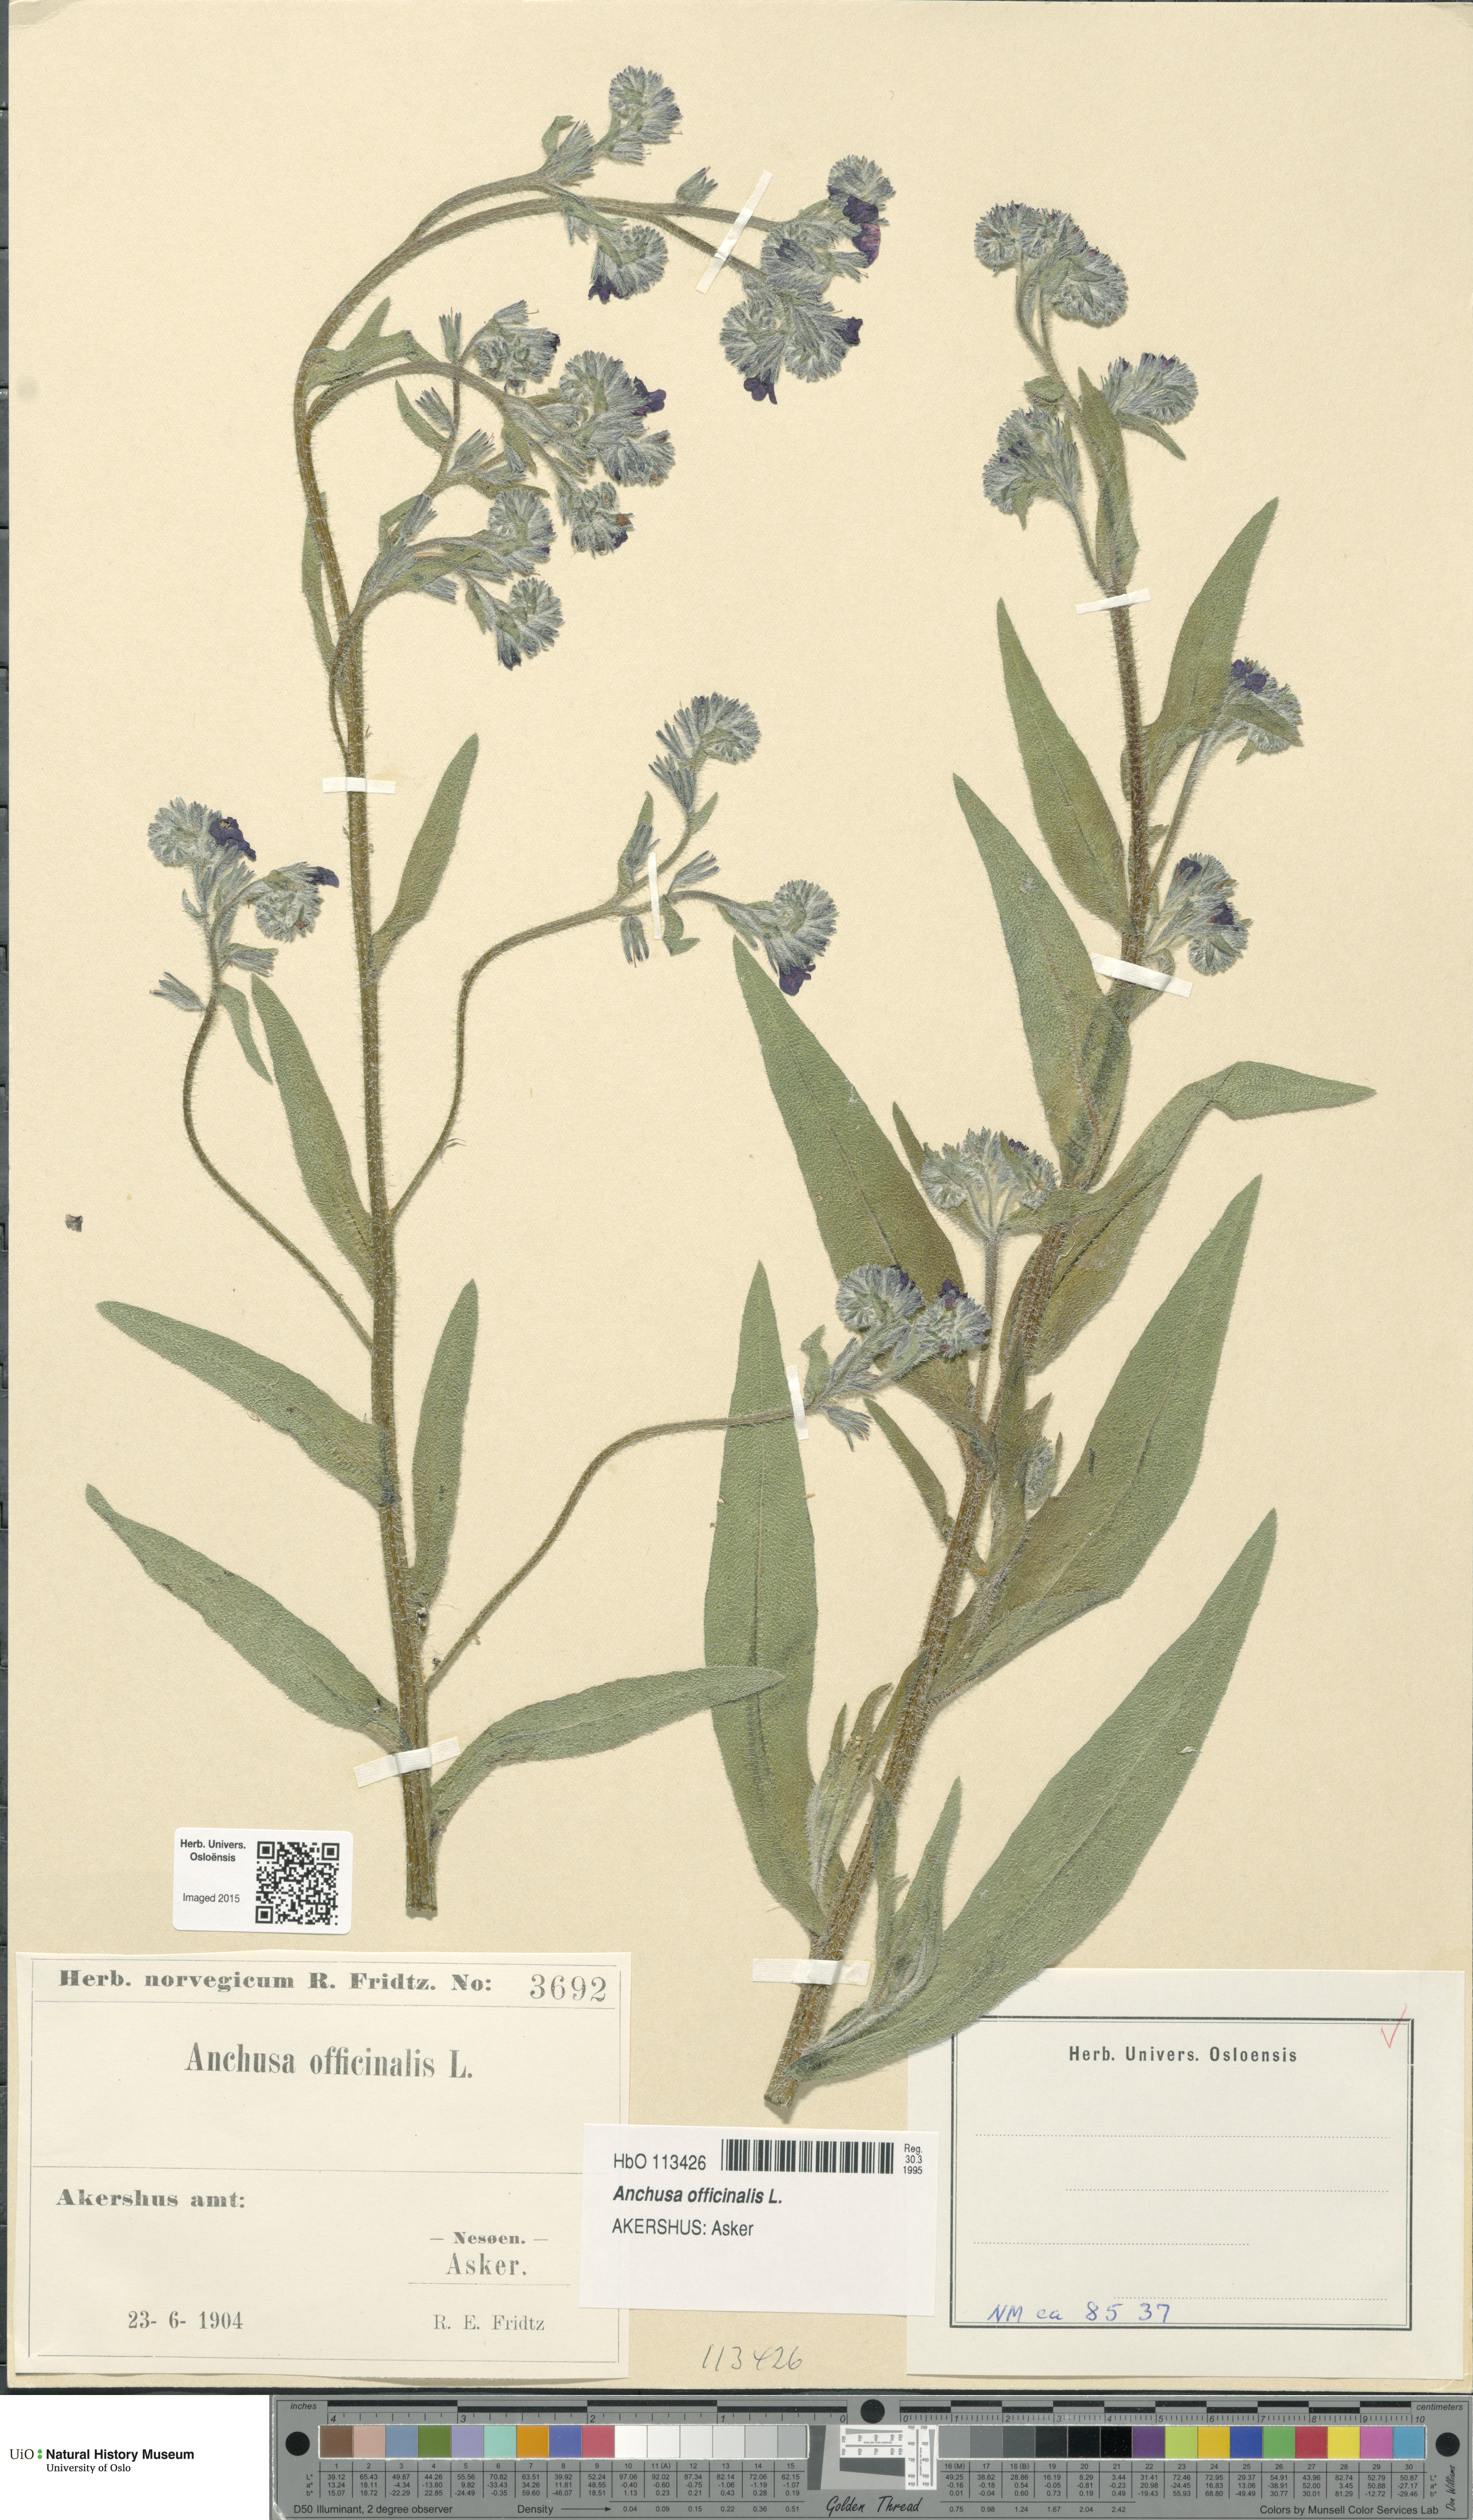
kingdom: Plantae
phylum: Tracheophyta
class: Magnoliopsida
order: Boraginales
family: Boraginaceae
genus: Anchusa
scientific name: Anchusa officinalis
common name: Alkanet
